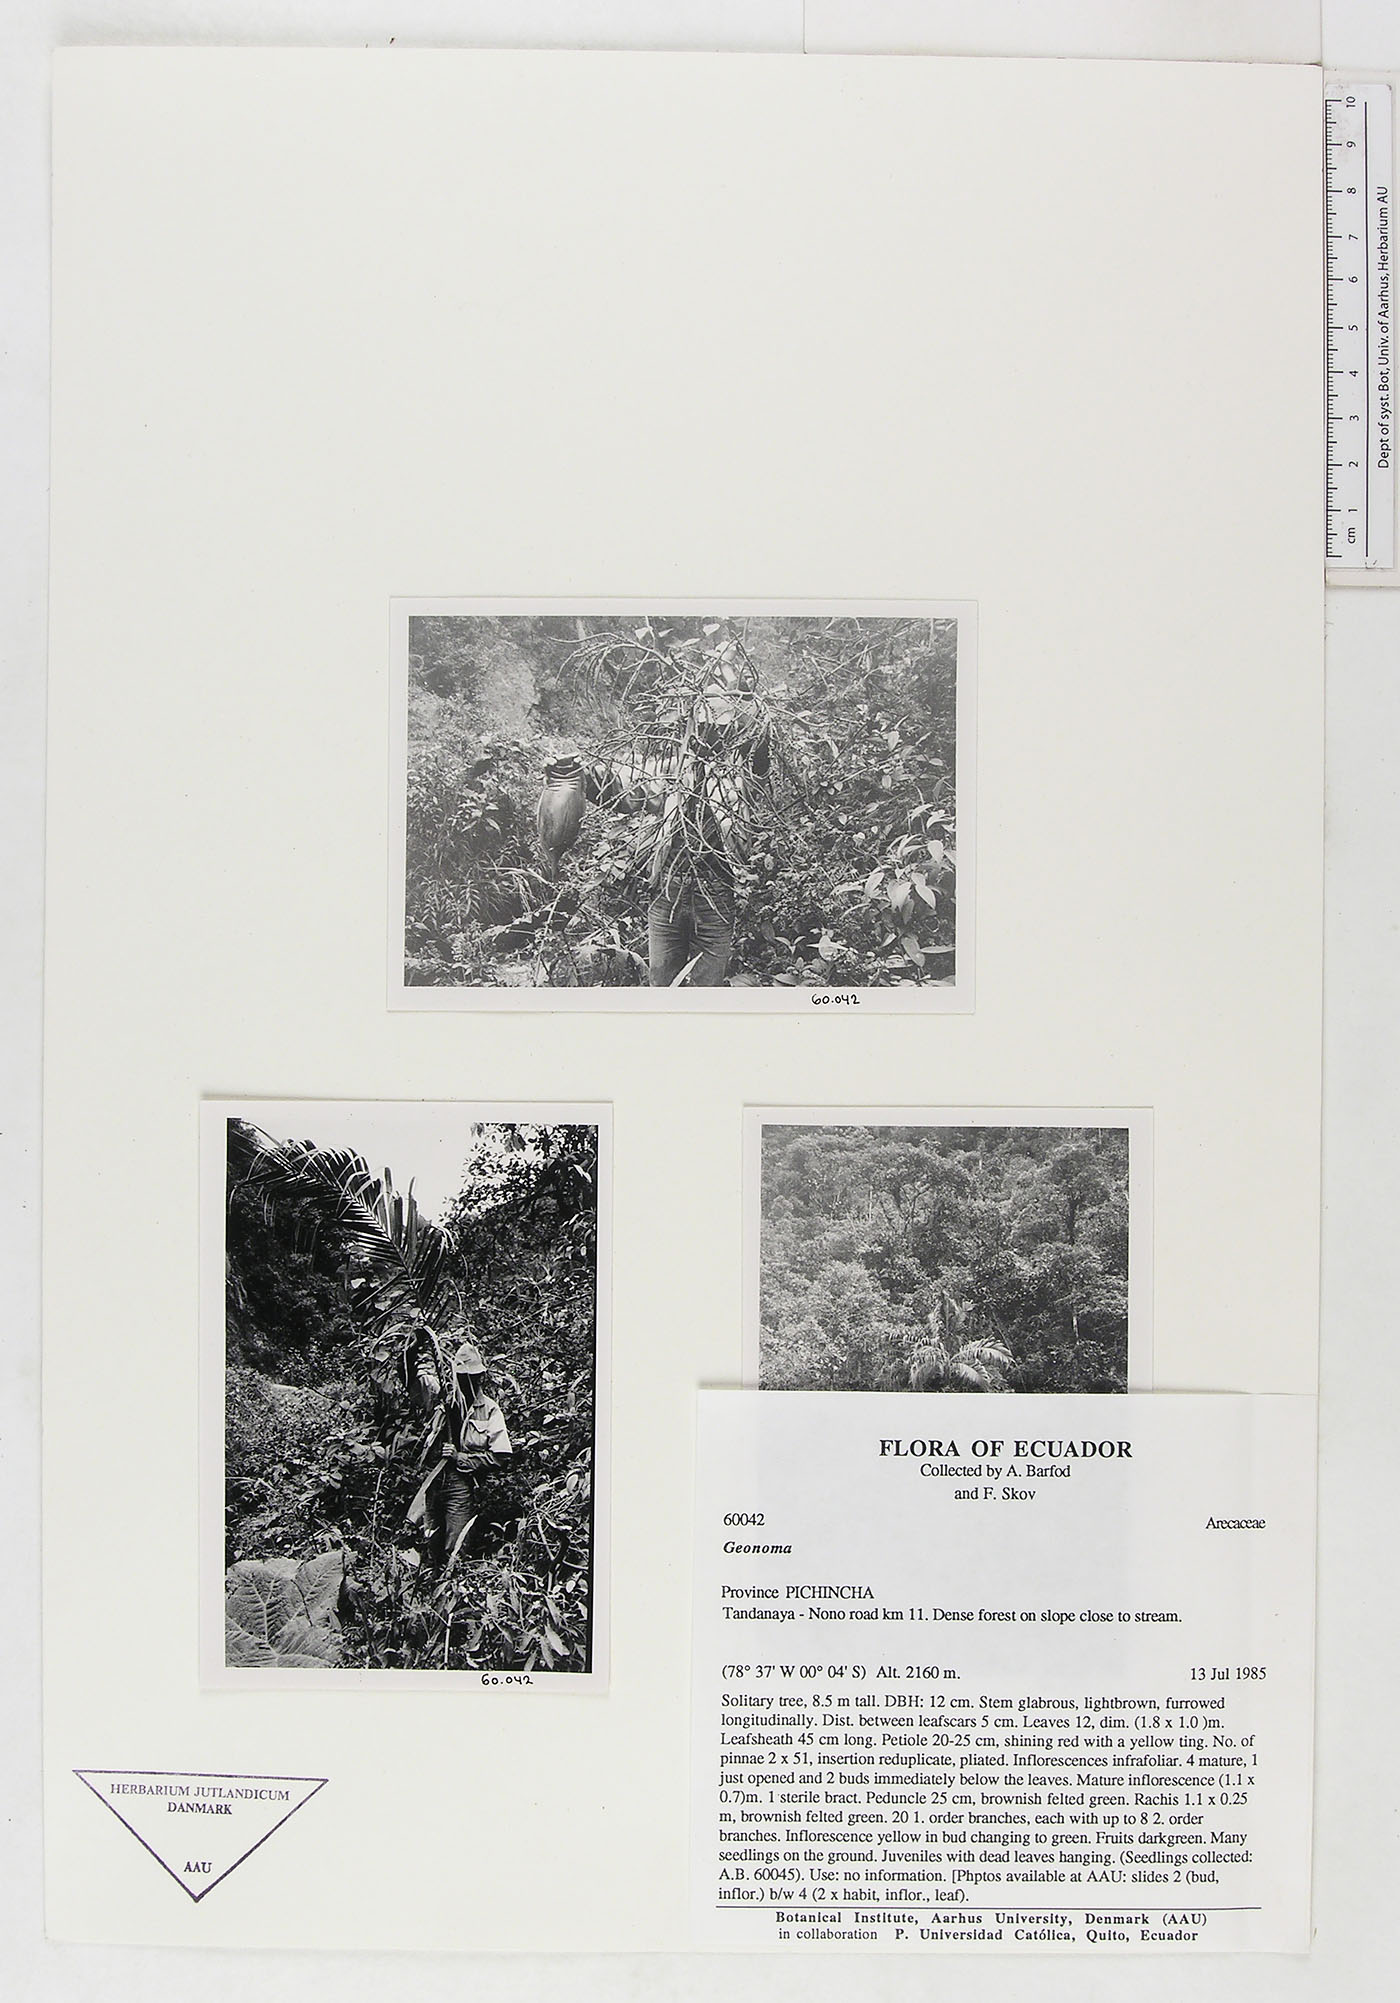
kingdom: Plantae
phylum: Tracheophyta
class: Liliopsida
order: Arecales
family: Arecaceae
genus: Geonoma
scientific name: Geonoma undata
